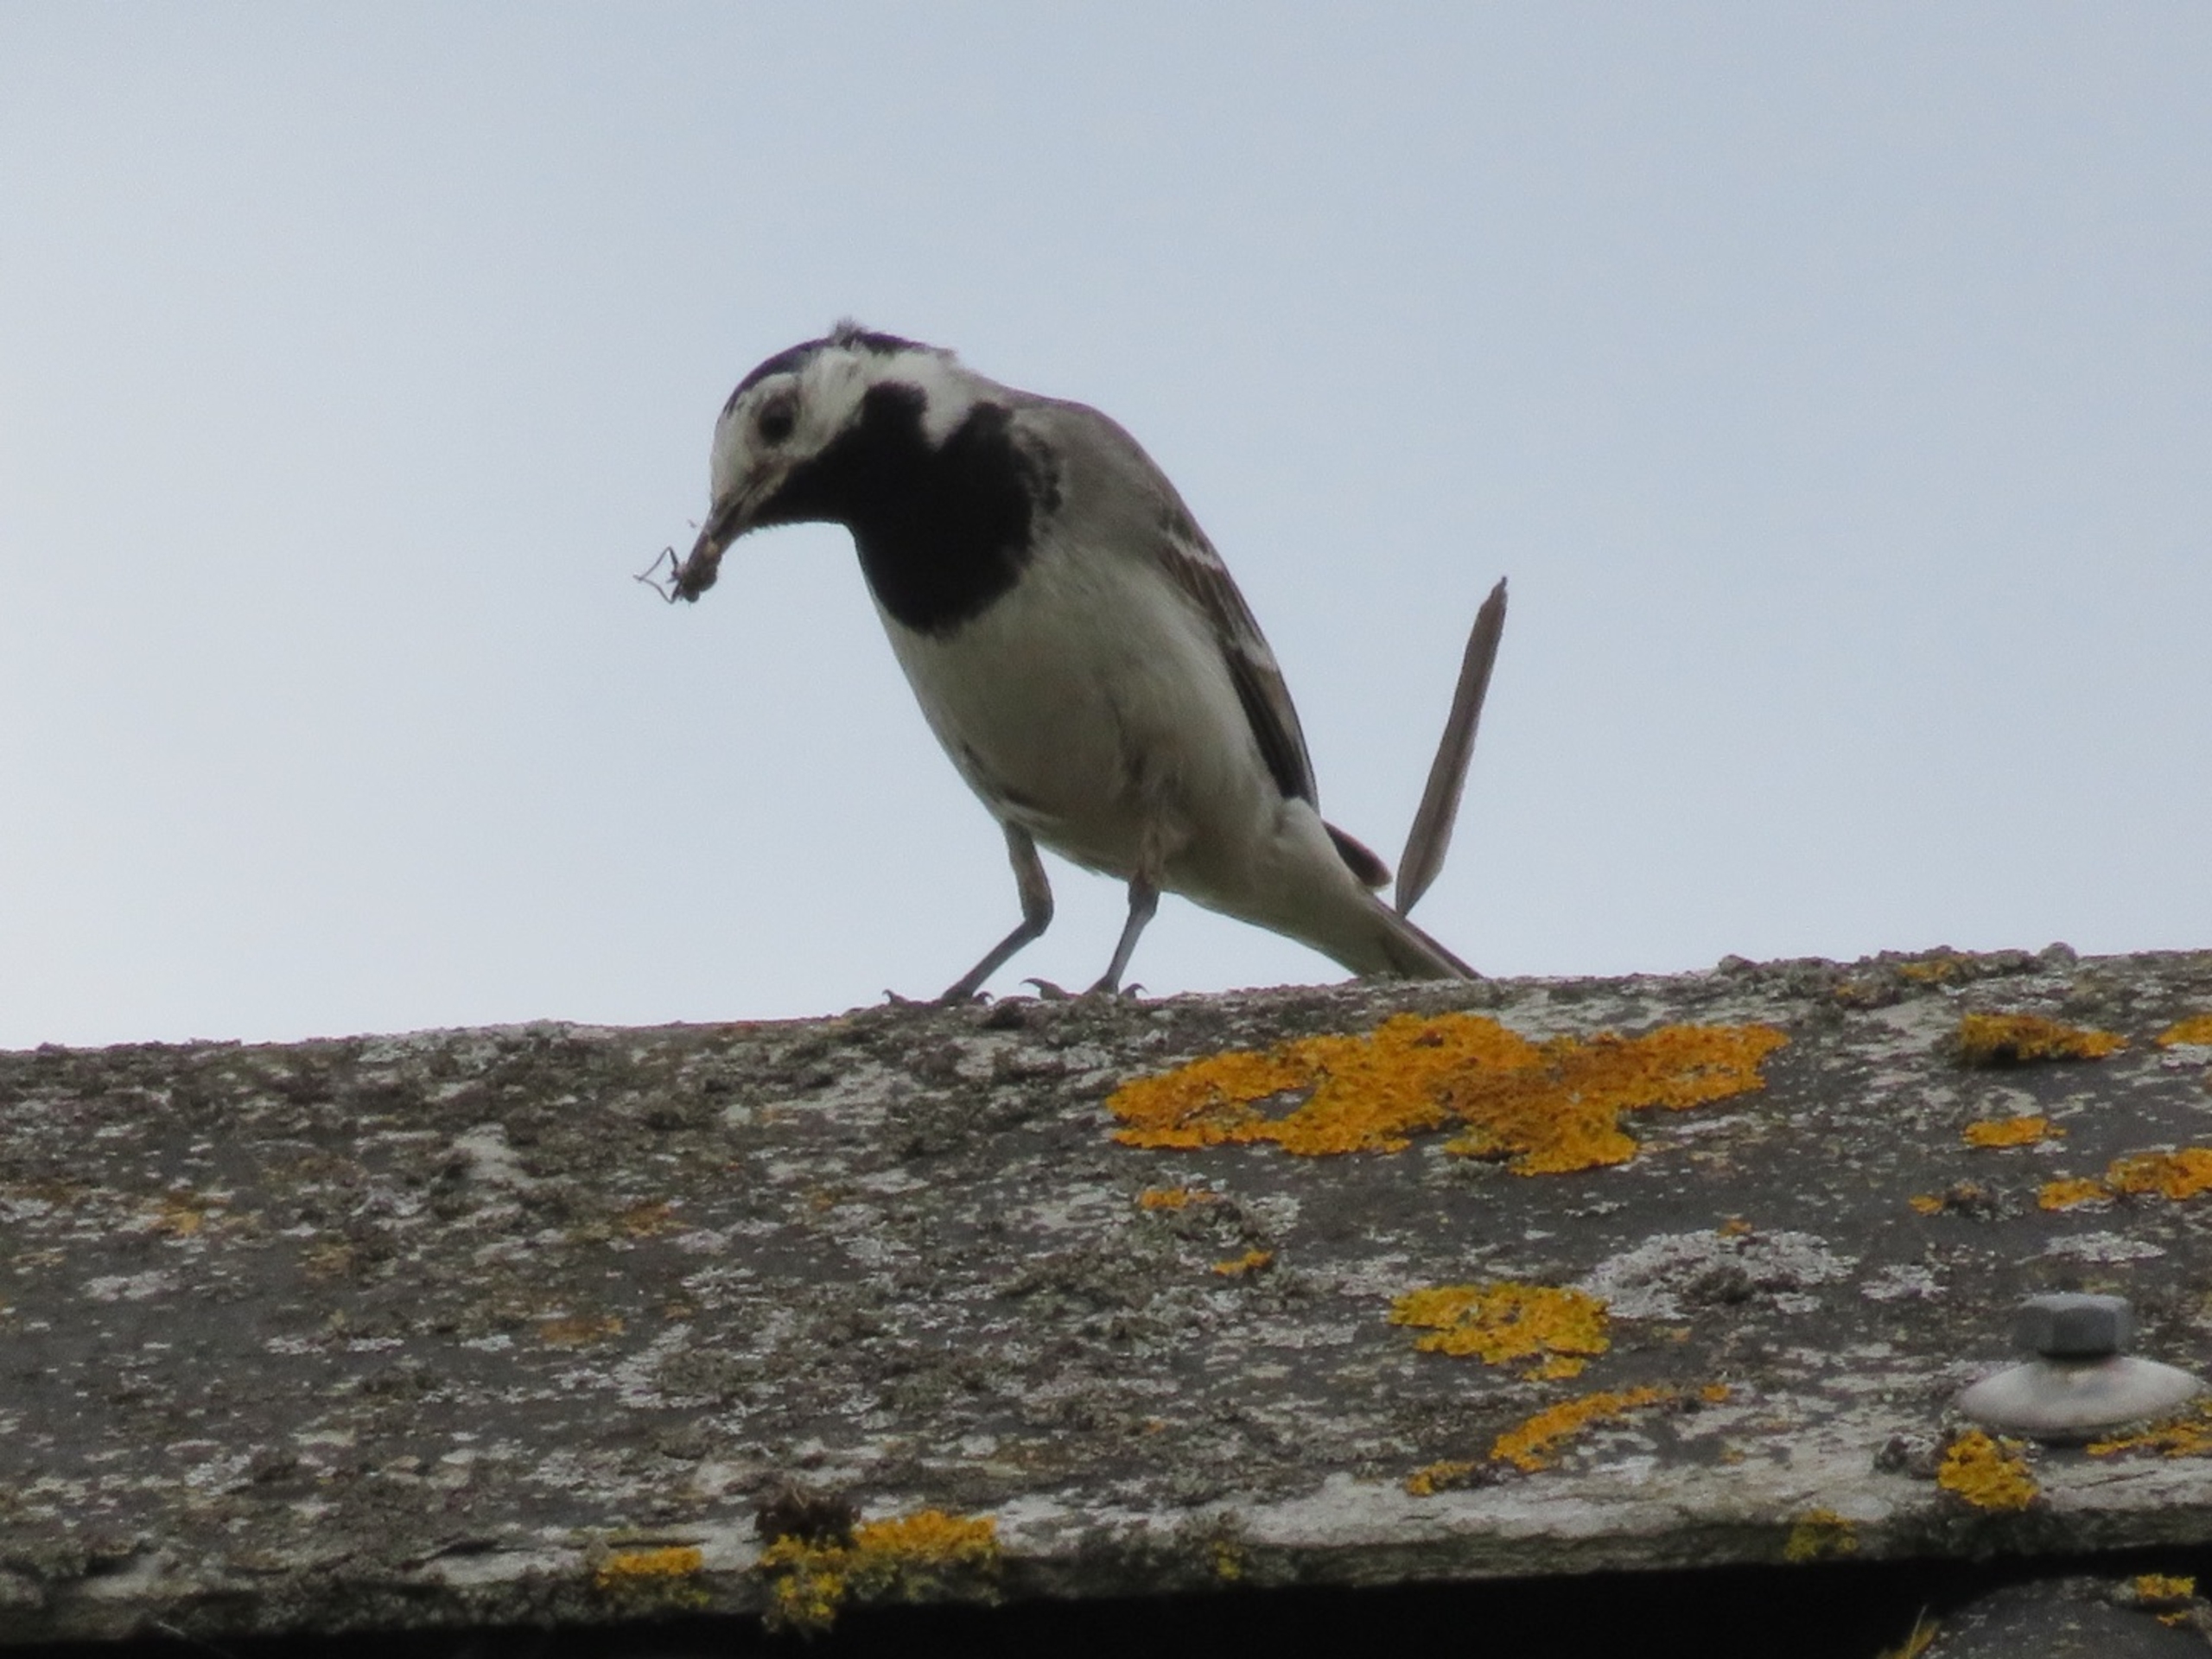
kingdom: Animalia
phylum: Chordata
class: Aves
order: Passeriformes
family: Motacillidae
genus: Motacilla
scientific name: Motacilla alba
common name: Hvid vipstjert
